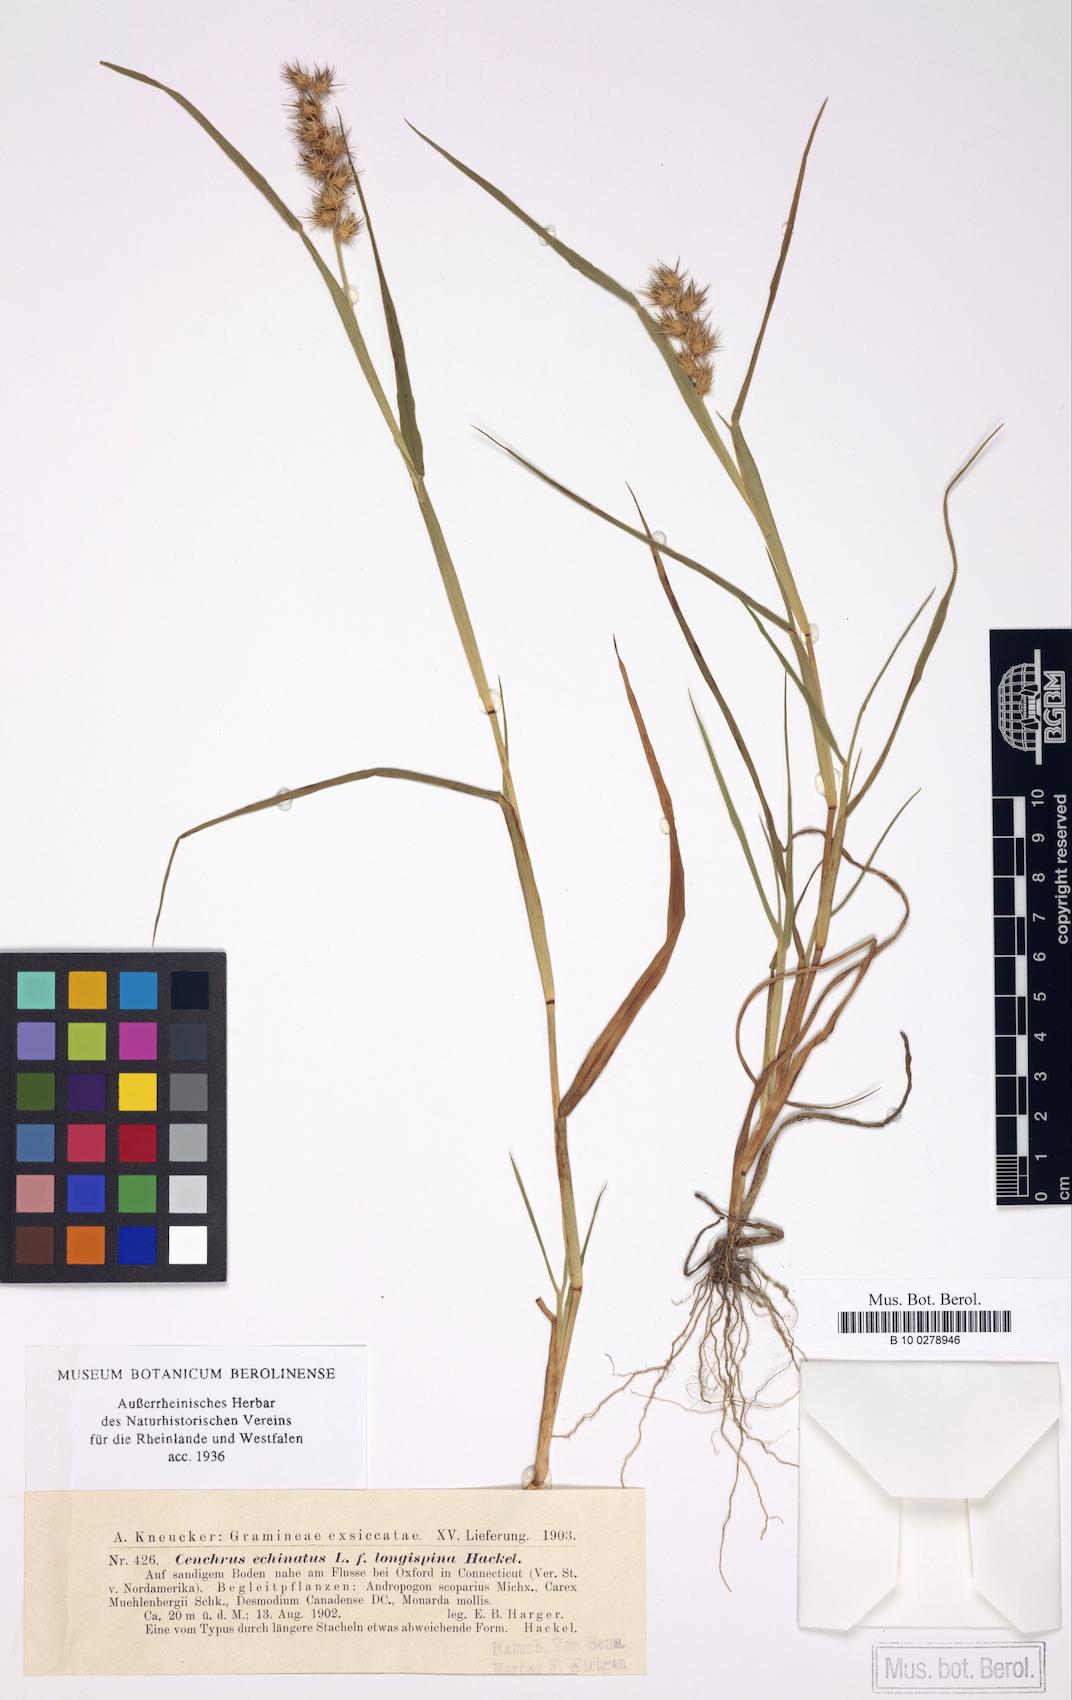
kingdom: Plantae
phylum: Tracheophyta
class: Liliopsida
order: Poales
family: Poaceae
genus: Cenchrus
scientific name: Cenchrus longispinus
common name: Mat sandbur
